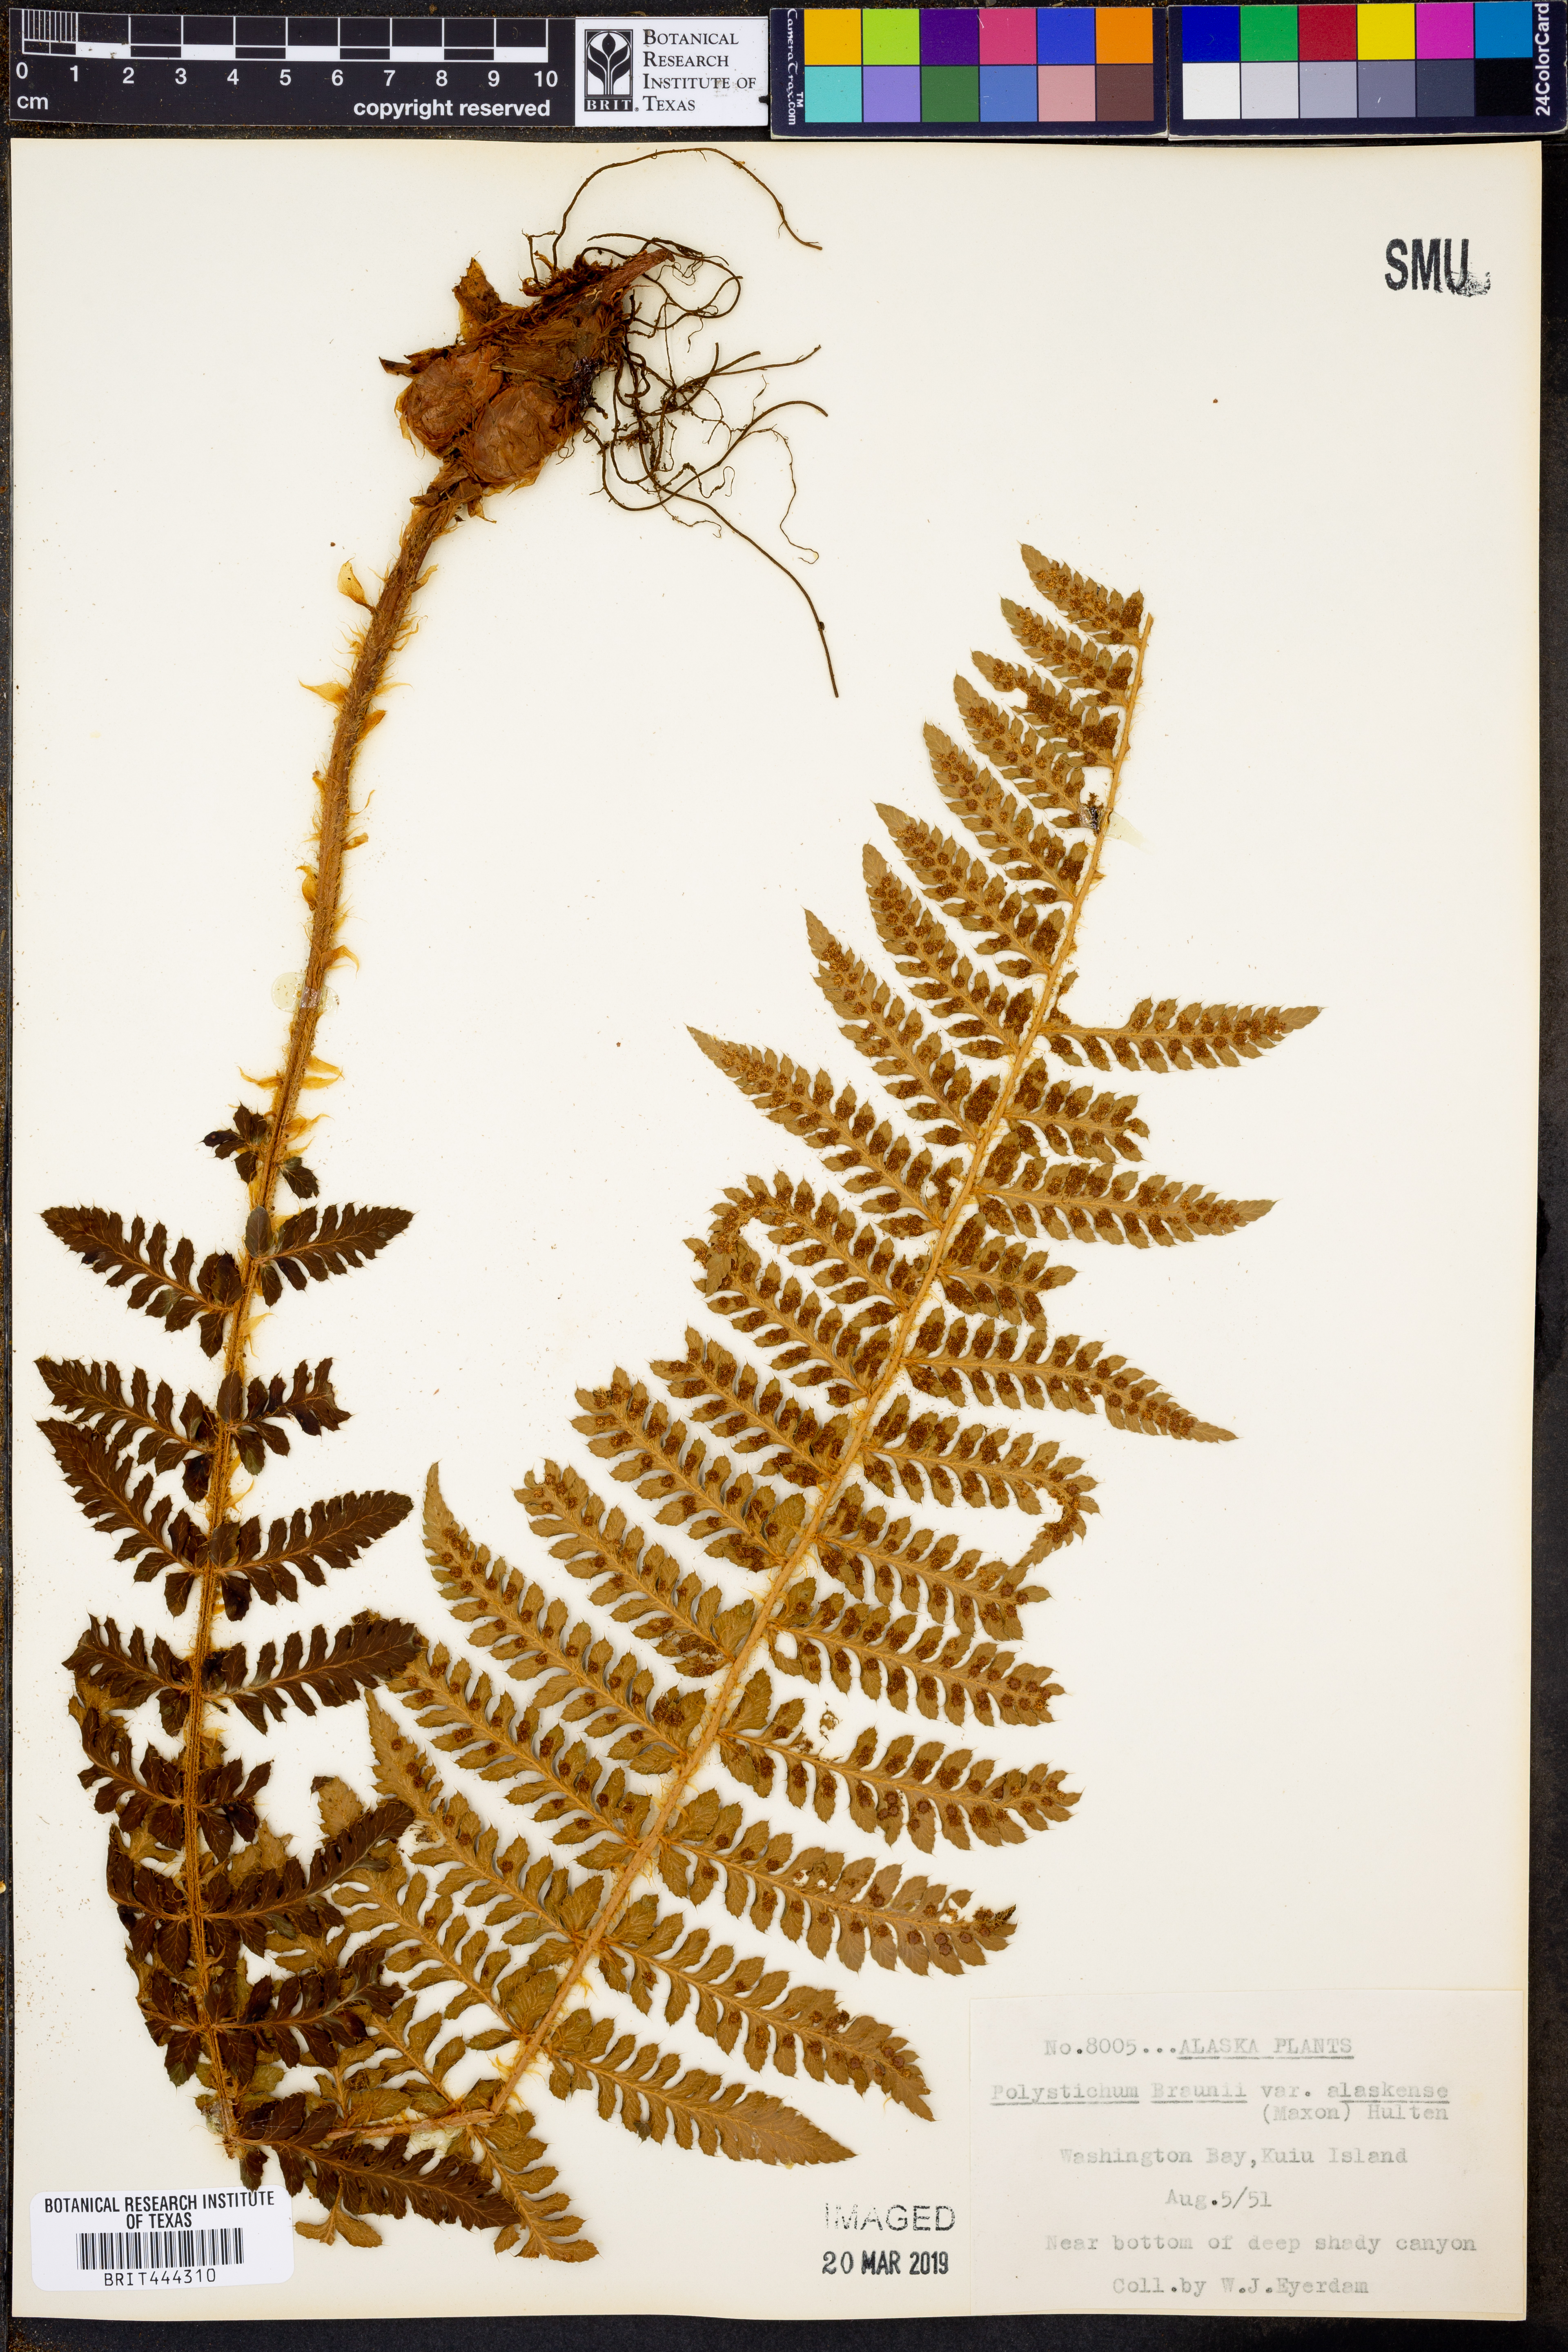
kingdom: Plantae
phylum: Tracheophyta
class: Polypodiopsida
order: Polypodiales
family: Dryopteridaceae
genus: Polystichum
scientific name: Polystichum setigerum
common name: Alaska holly fern
